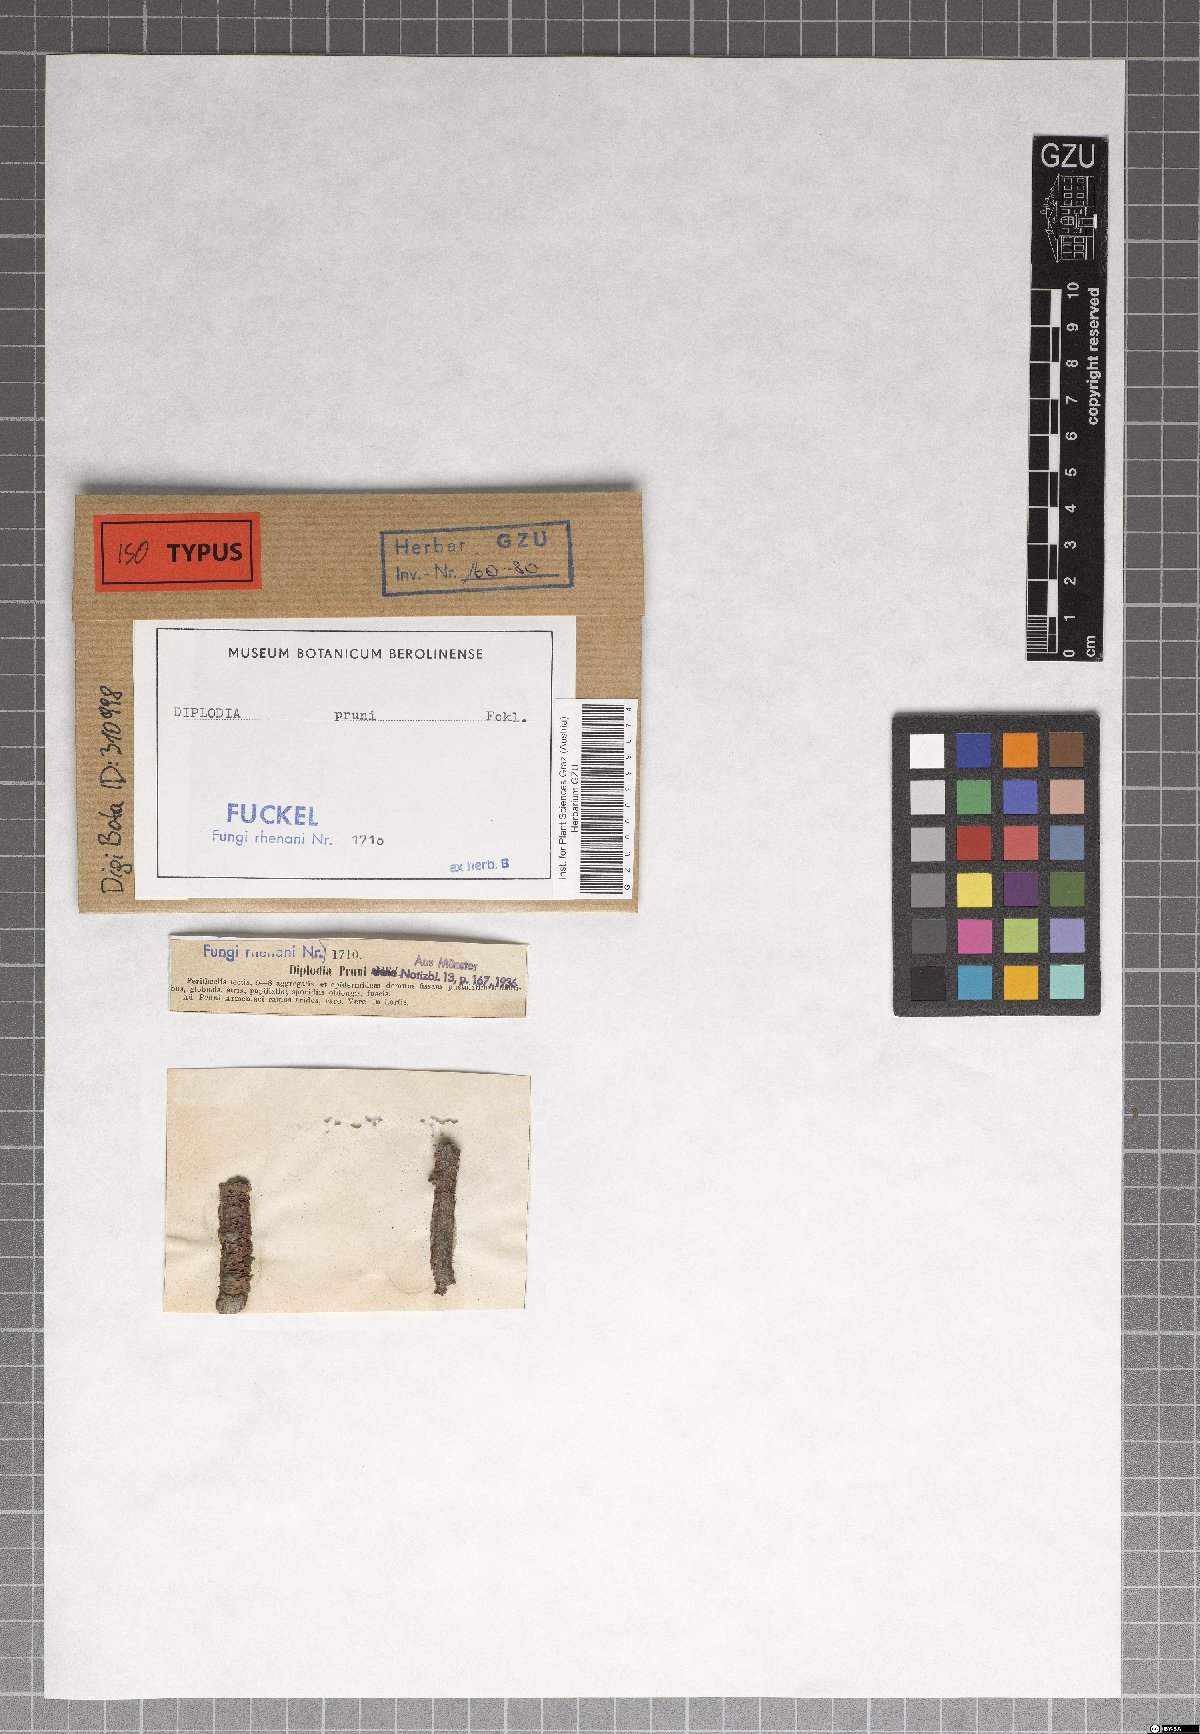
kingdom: Fungi
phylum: Ascomycota
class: Dothideomycetes
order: Botryosphaeriales
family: Botryosphaeriaceae
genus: Diplodia
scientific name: Diplodia pruni
